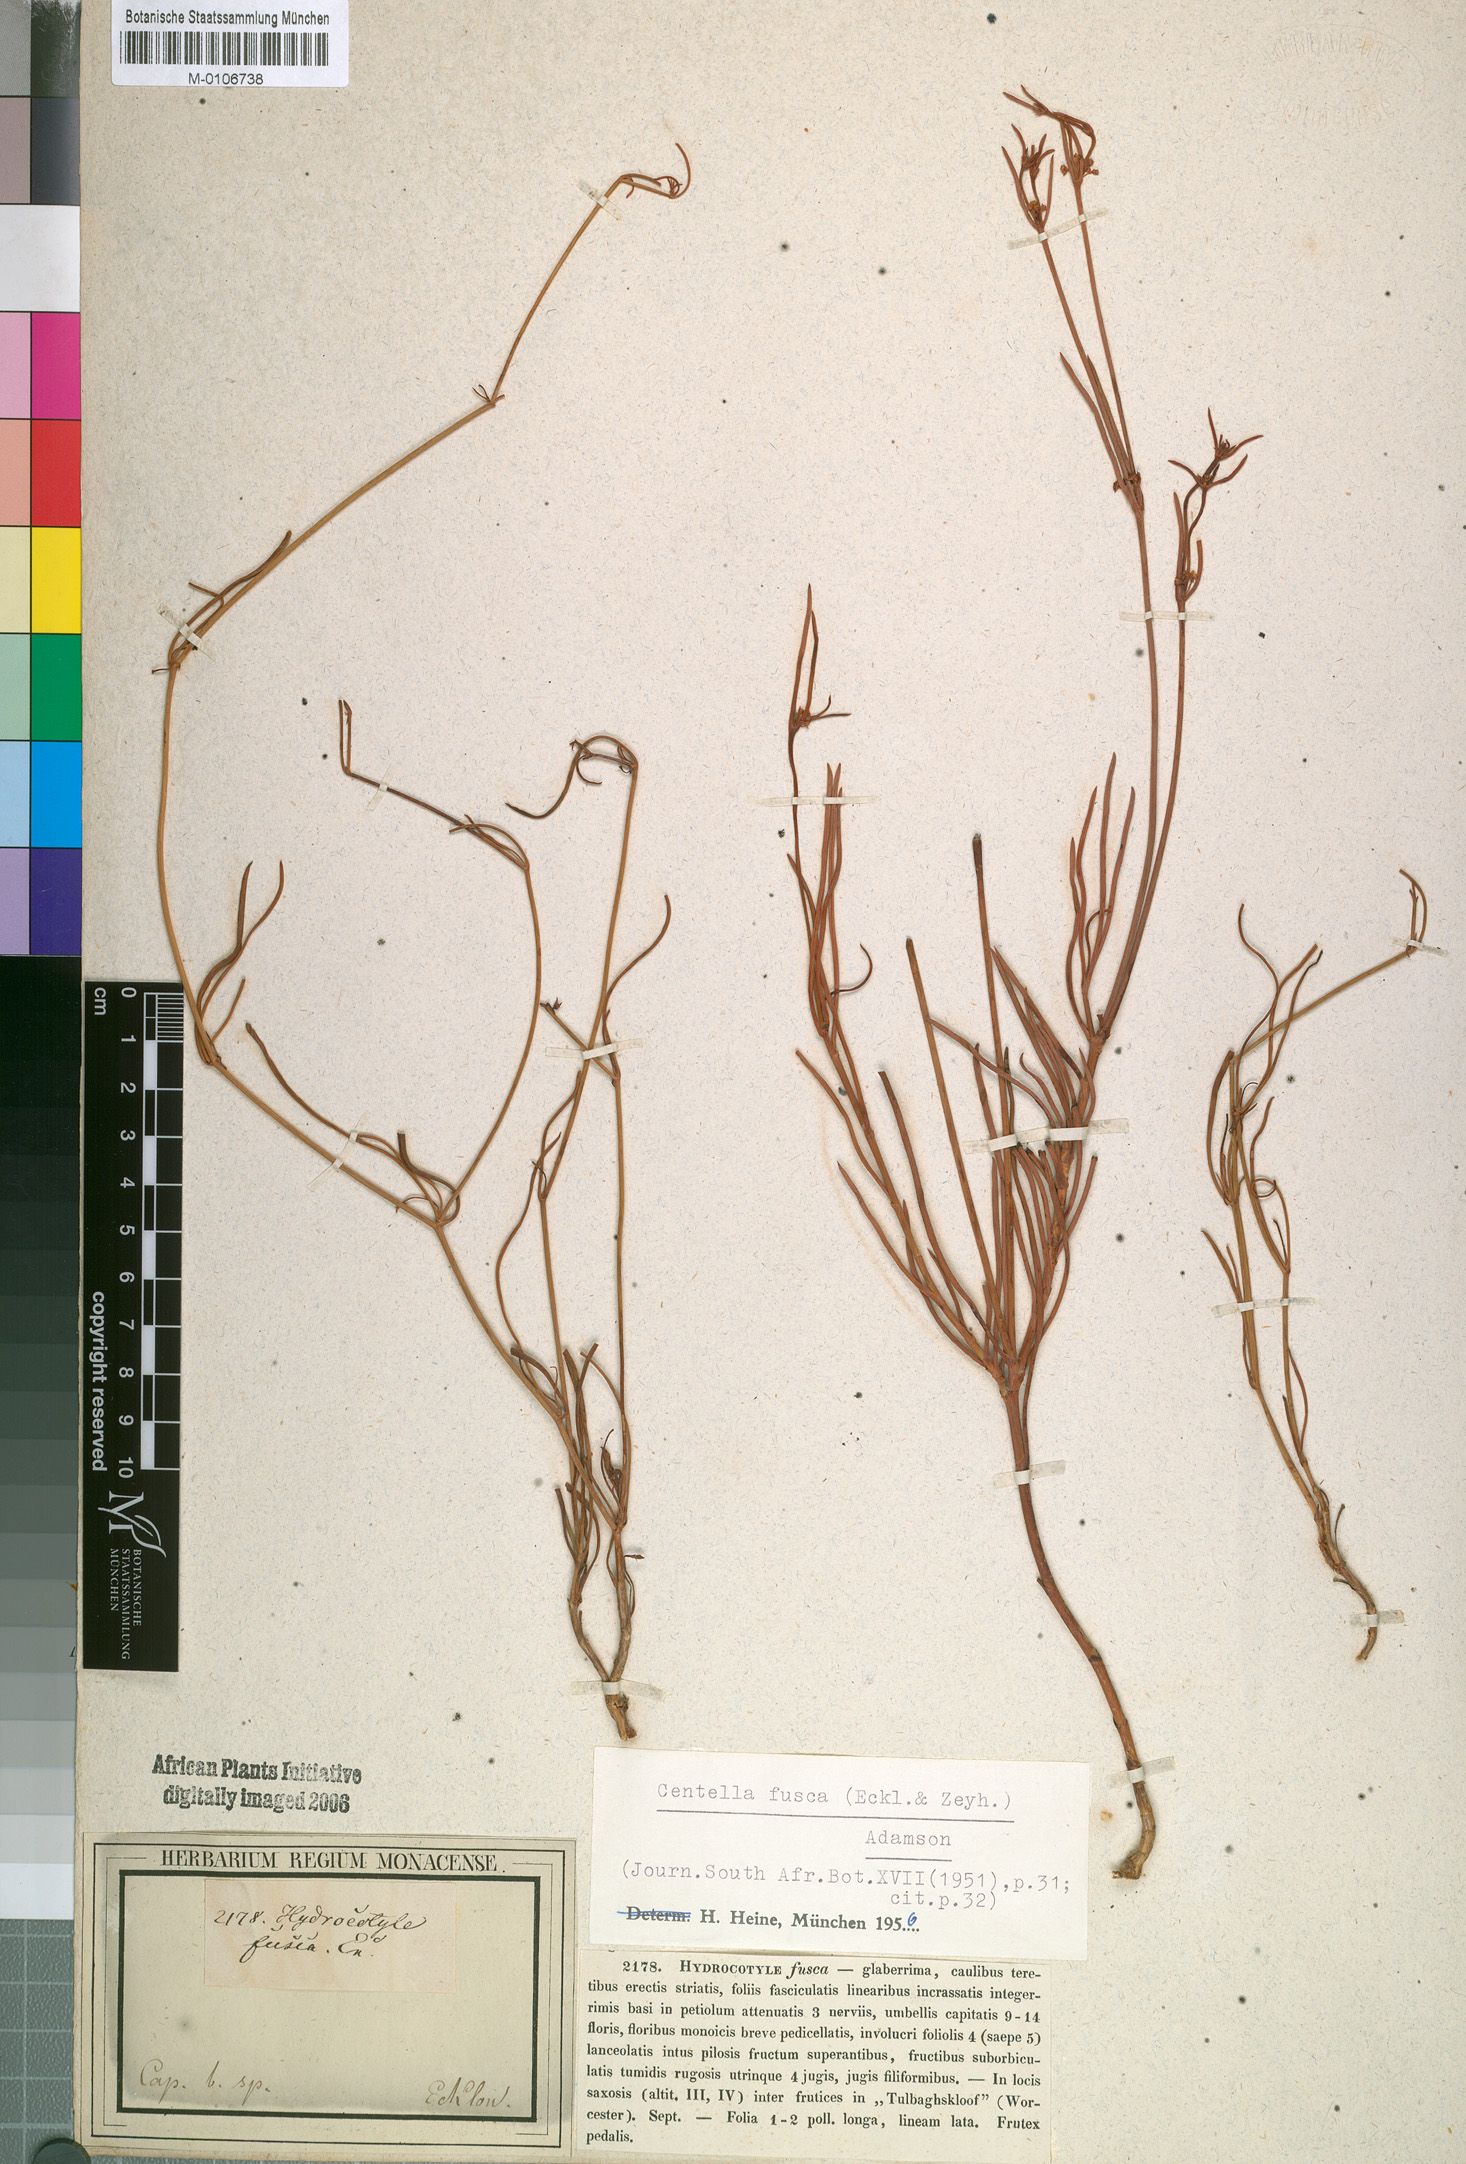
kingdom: Plantae
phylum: Tracheophyta
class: Magnoliopsida
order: Apiales
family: Apiaceae
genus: Centella
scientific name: Centella fusca
